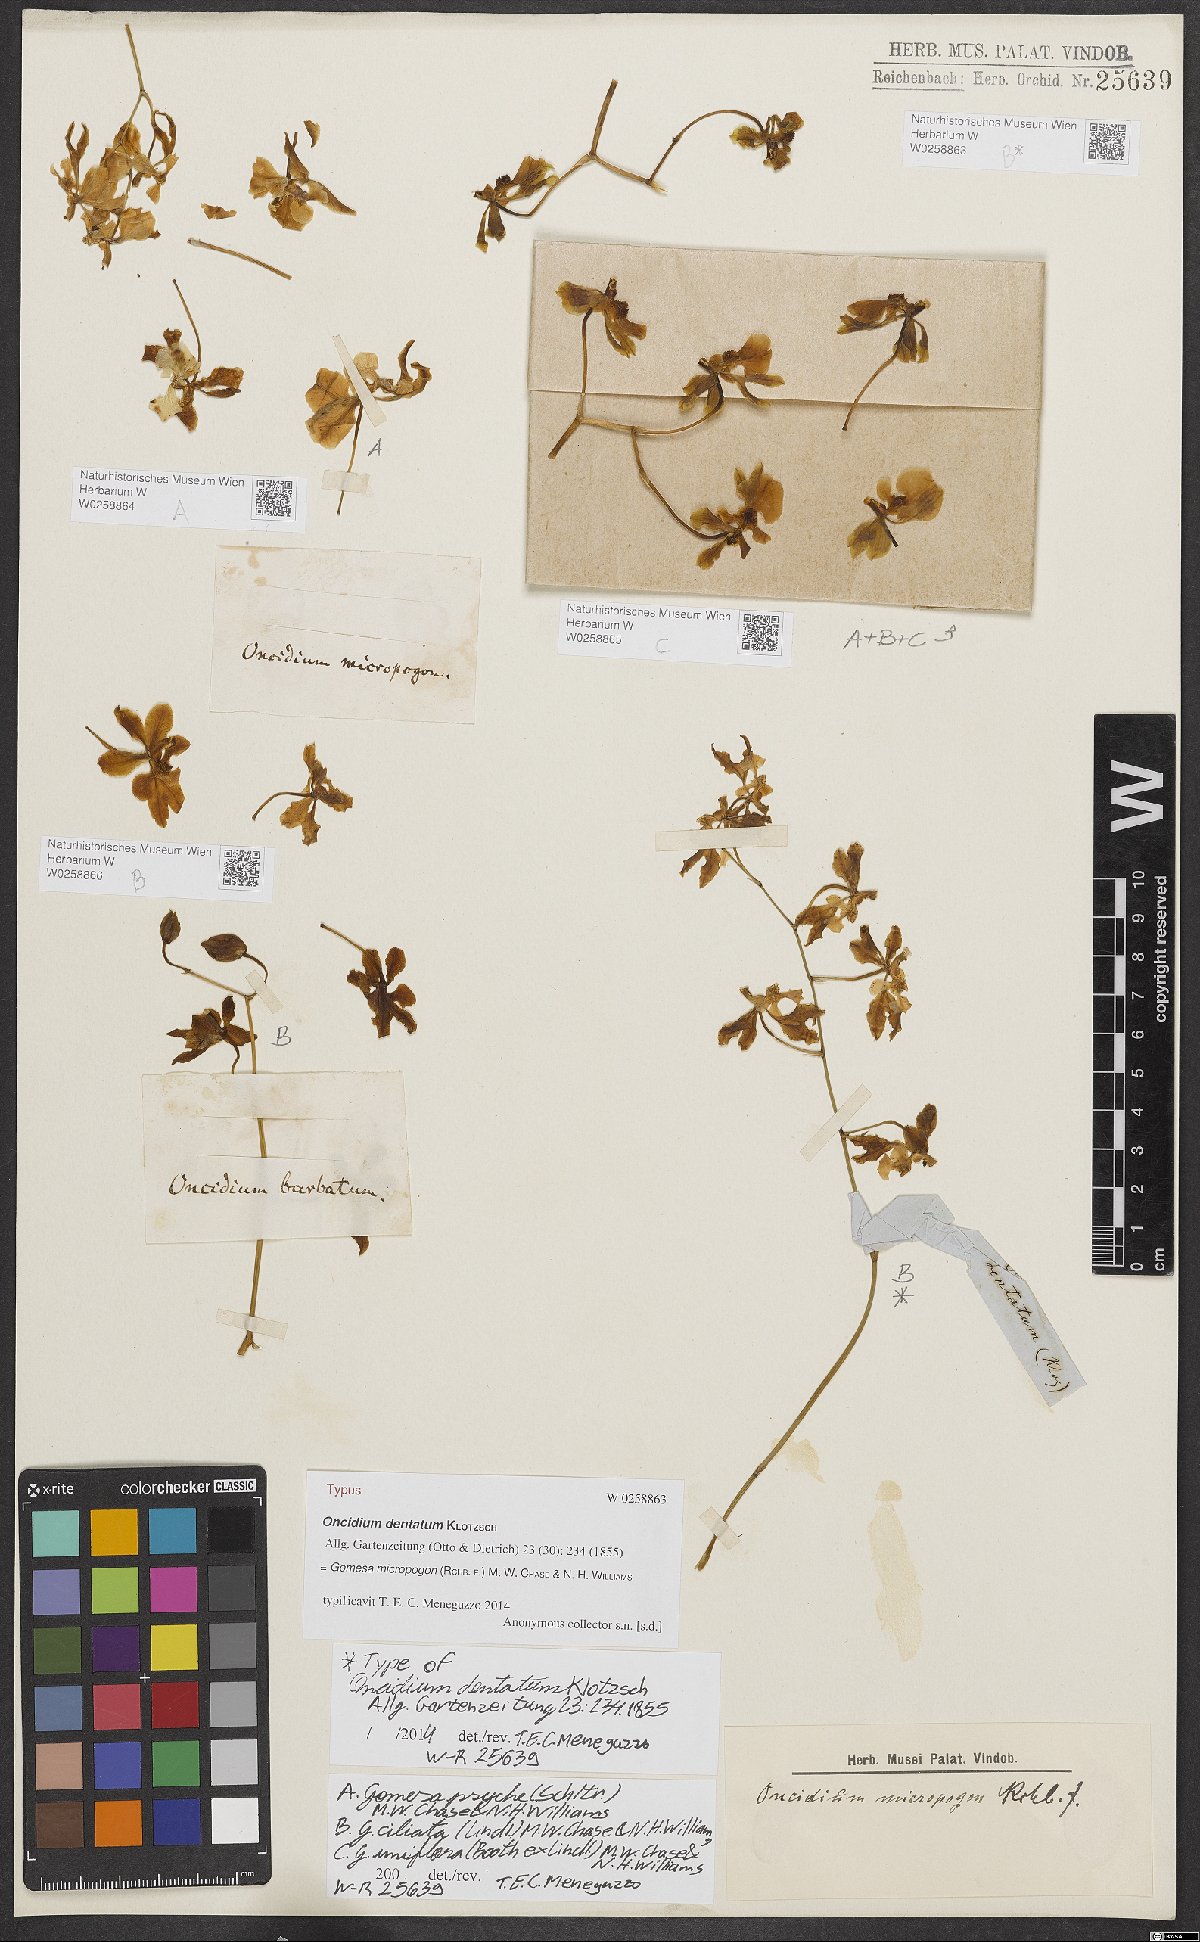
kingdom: Plantae
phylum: Tracheophyta
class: Liliopsida
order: Asparagales
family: Orchidaceae
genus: Gomesa
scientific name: Gomesa micropogon
